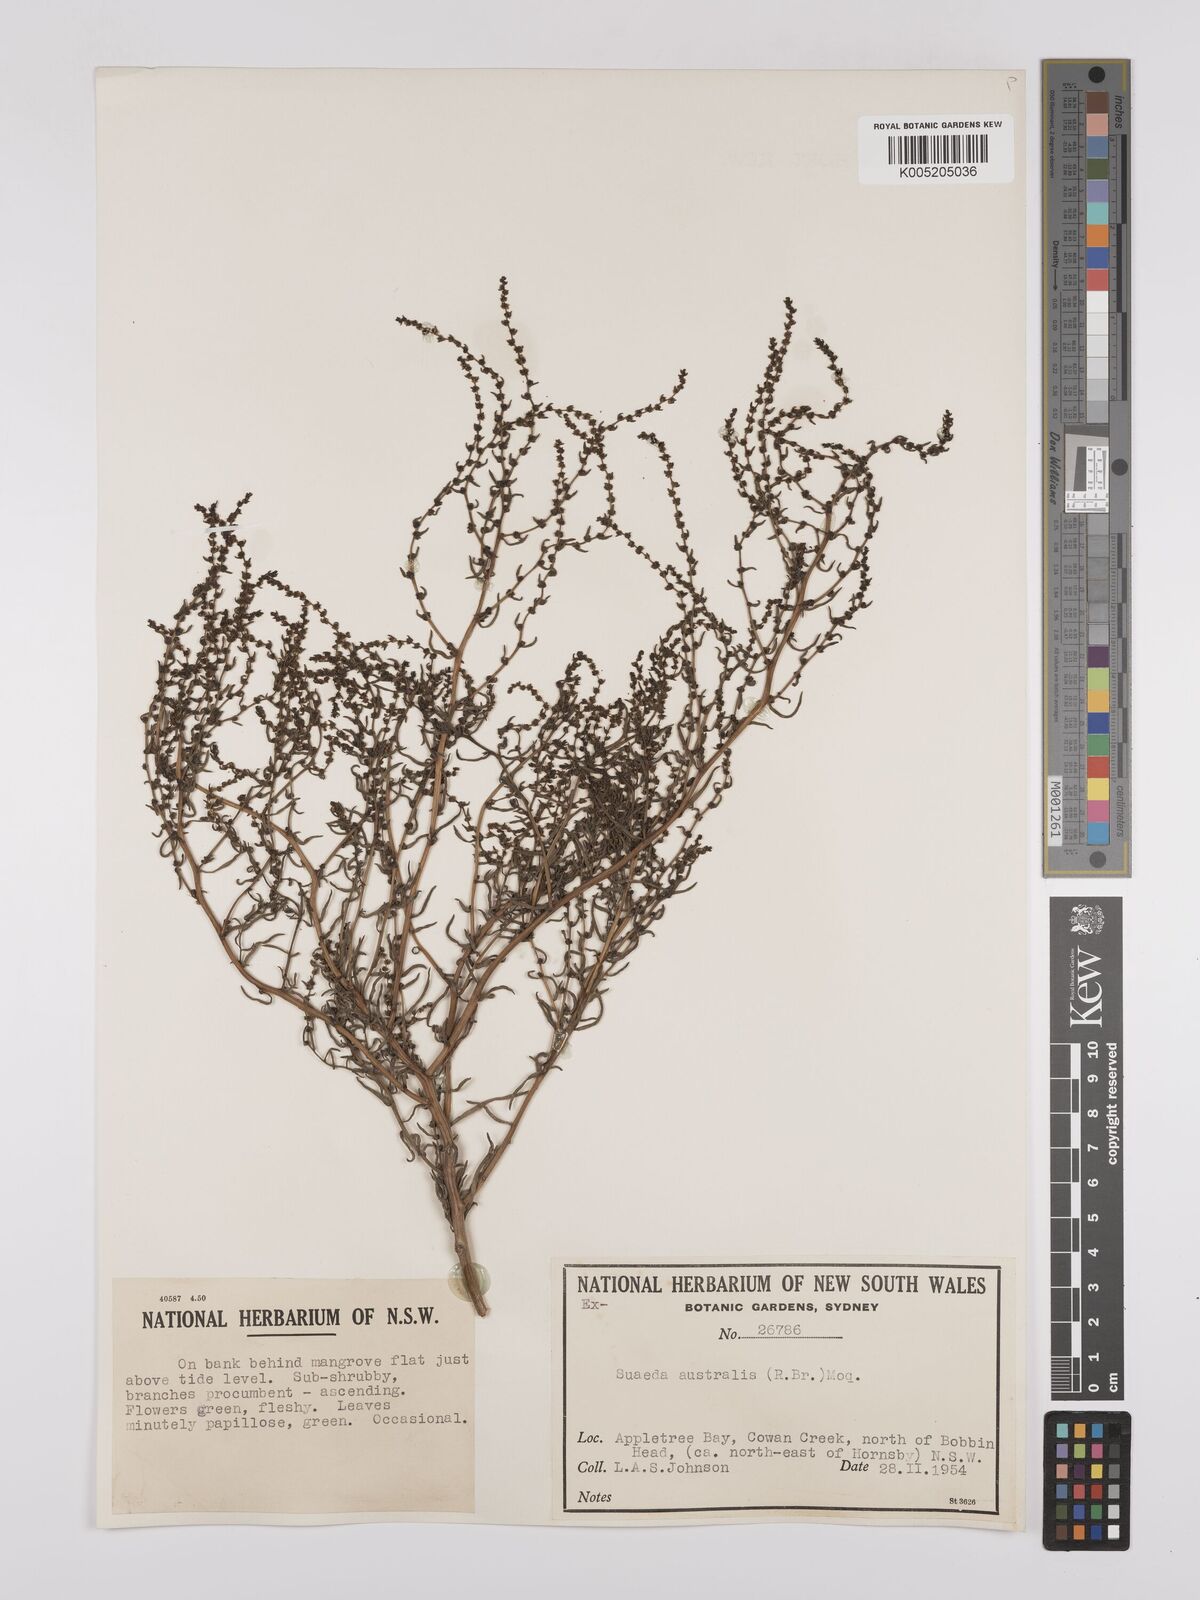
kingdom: Plantae
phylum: Tracheophyta
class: Magnoliopsida
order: Caryophyllales
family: Amaranthaceae
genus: Suaeda
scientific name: Suaeda australis
